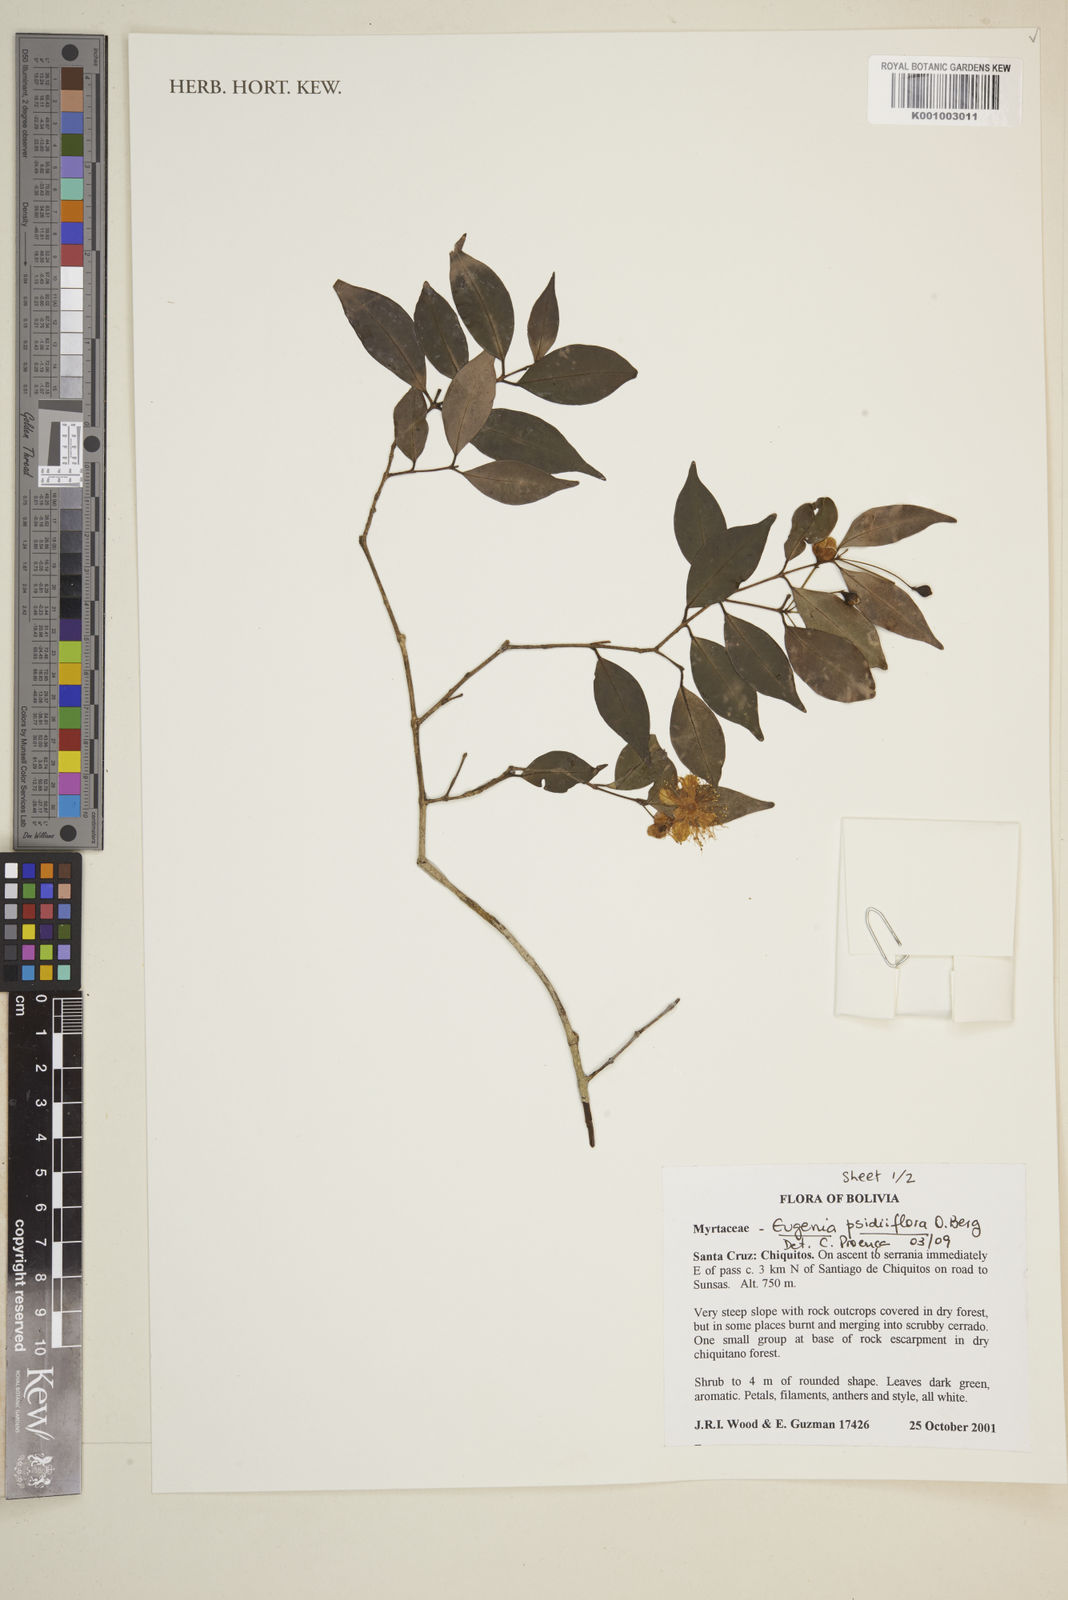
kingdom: Plantae
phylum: Tracheophyta
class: Magnoliopsida
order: Myrtales
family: Myrtaceae
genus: Eugenia
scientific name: Eugenia psidiiflora
